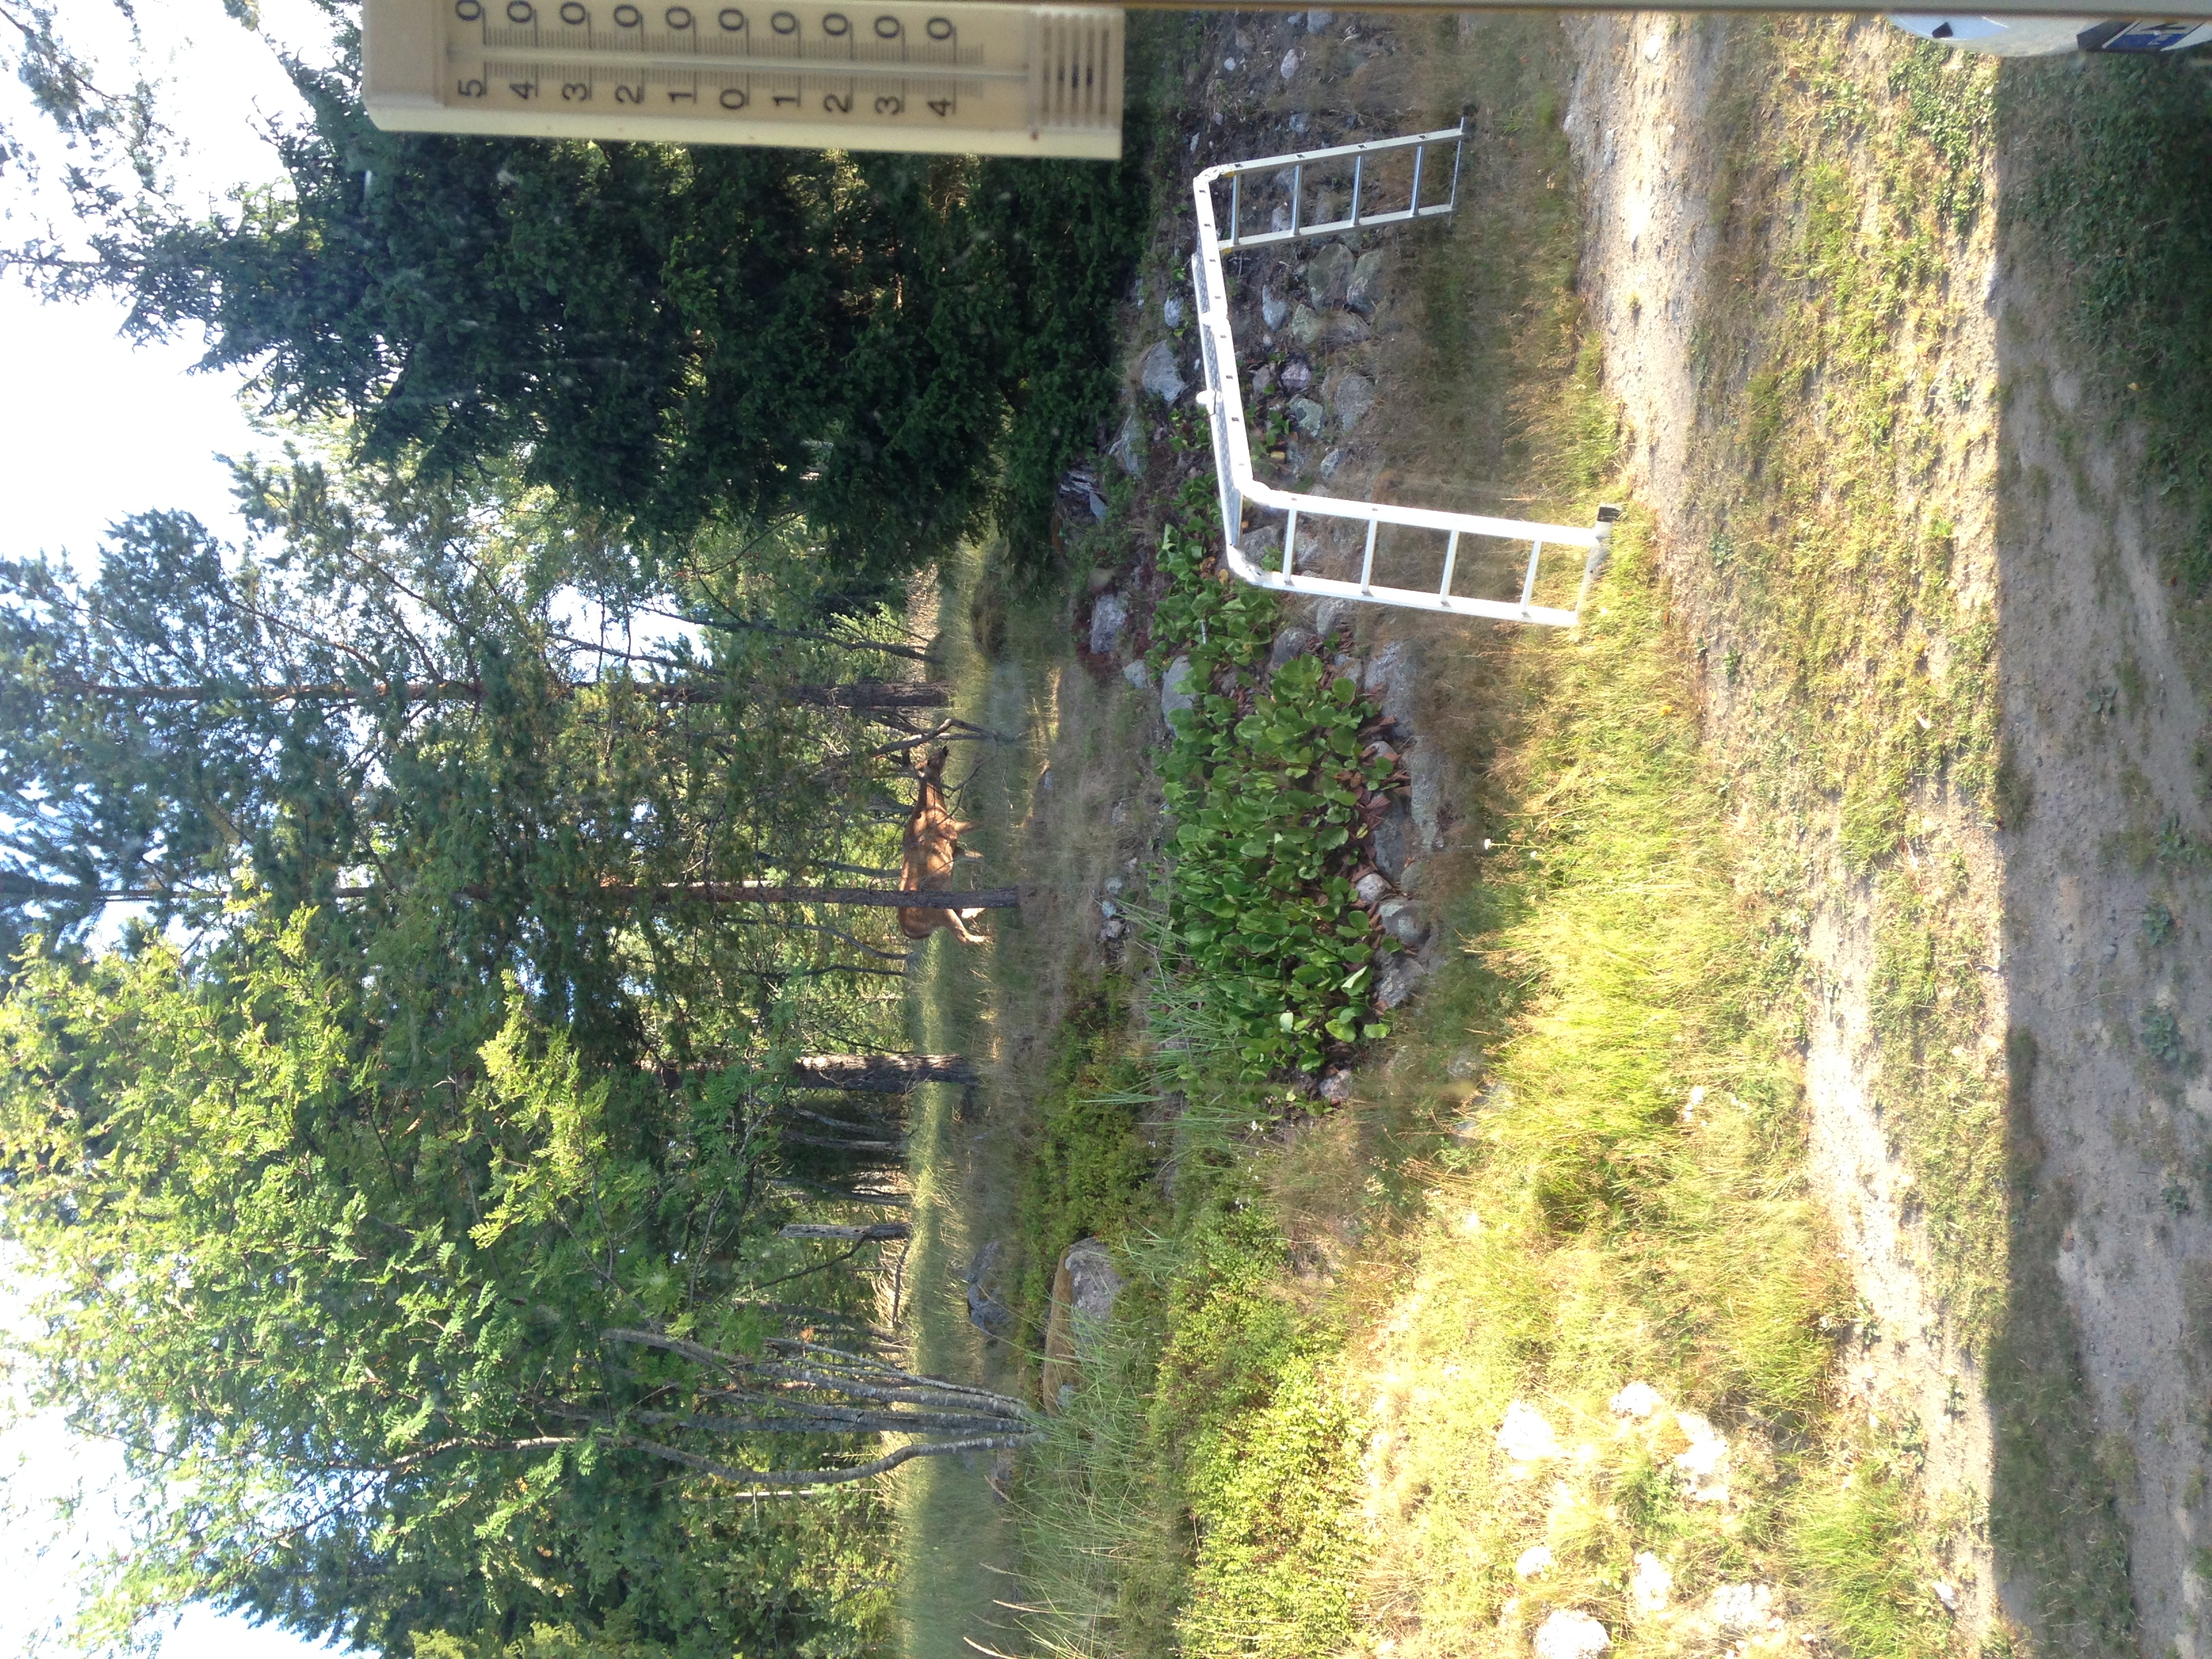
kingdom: Animalia
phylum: Chordata
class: Mammalia
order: Artiodactyla
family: Cervidae
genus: Odocoileus
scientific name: Odocoileus virginianus
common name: White-tailed deer
